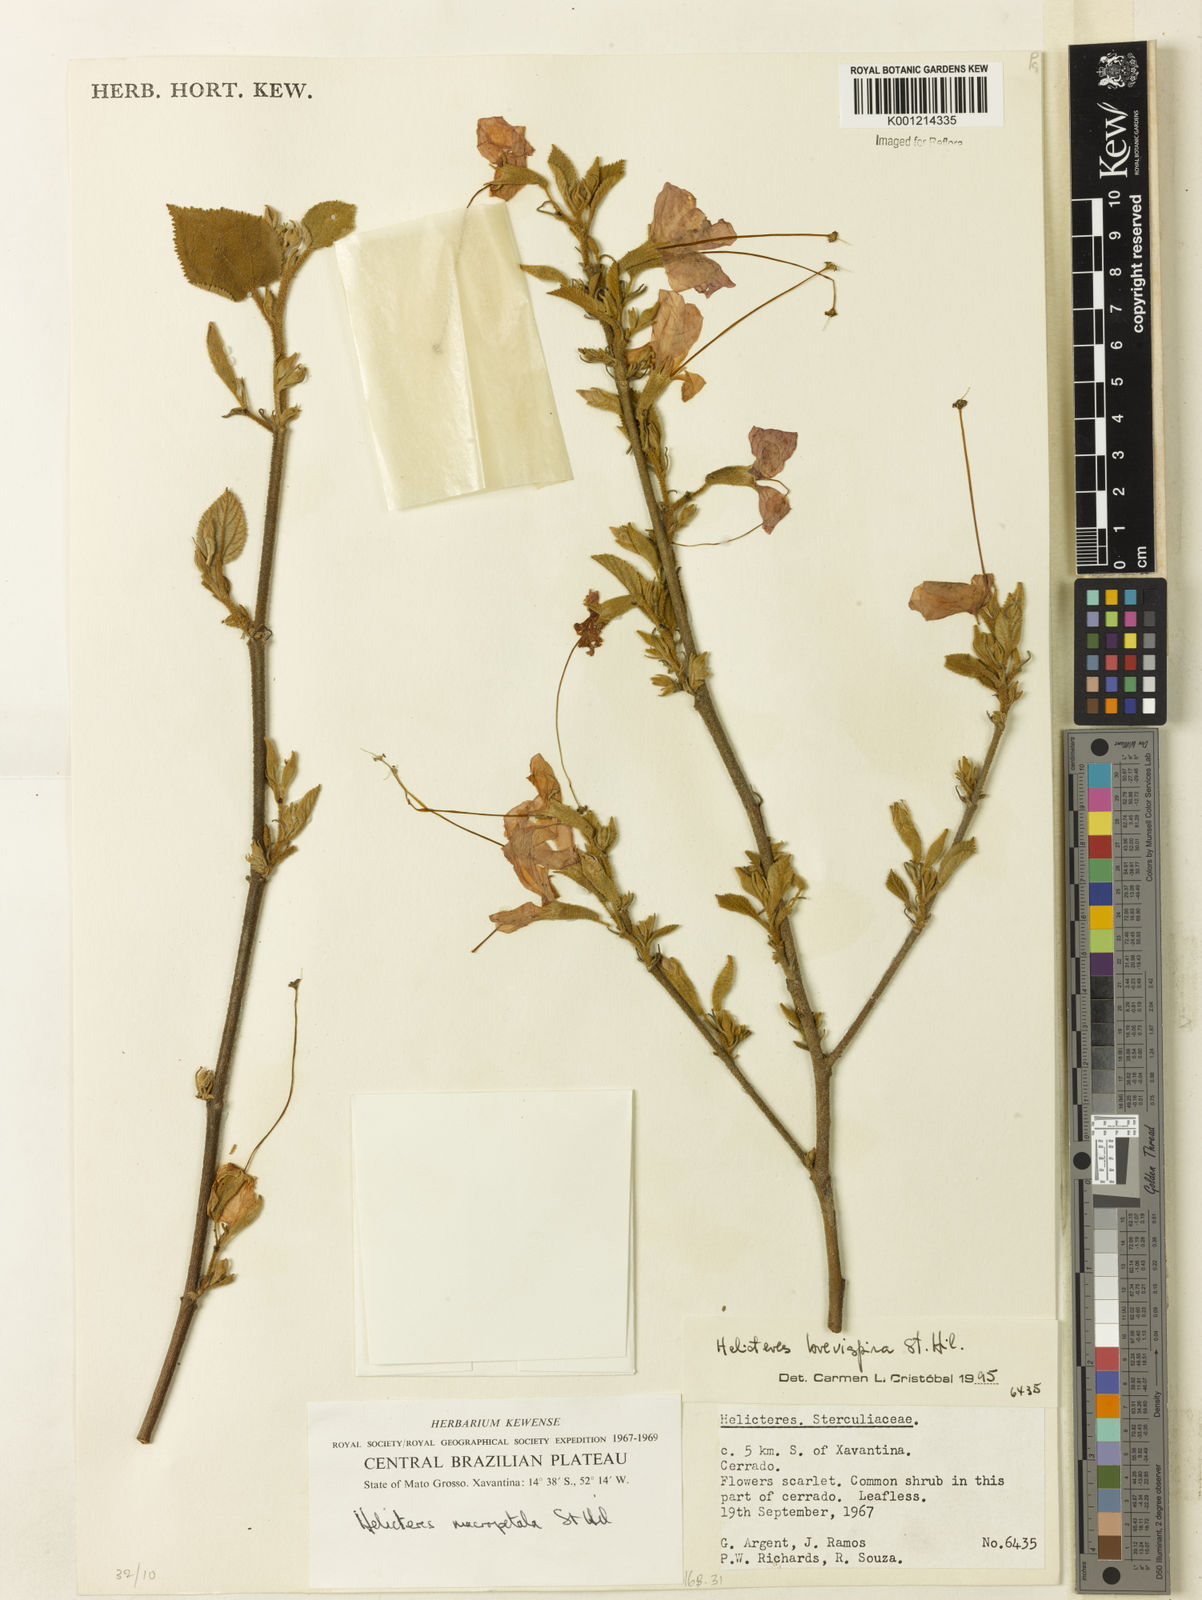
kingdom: Plantae
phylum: Tracheophyta
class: Magnoliopsida
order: Malvales
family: Malvaceae
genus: Helicteres
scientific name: Helicteres
